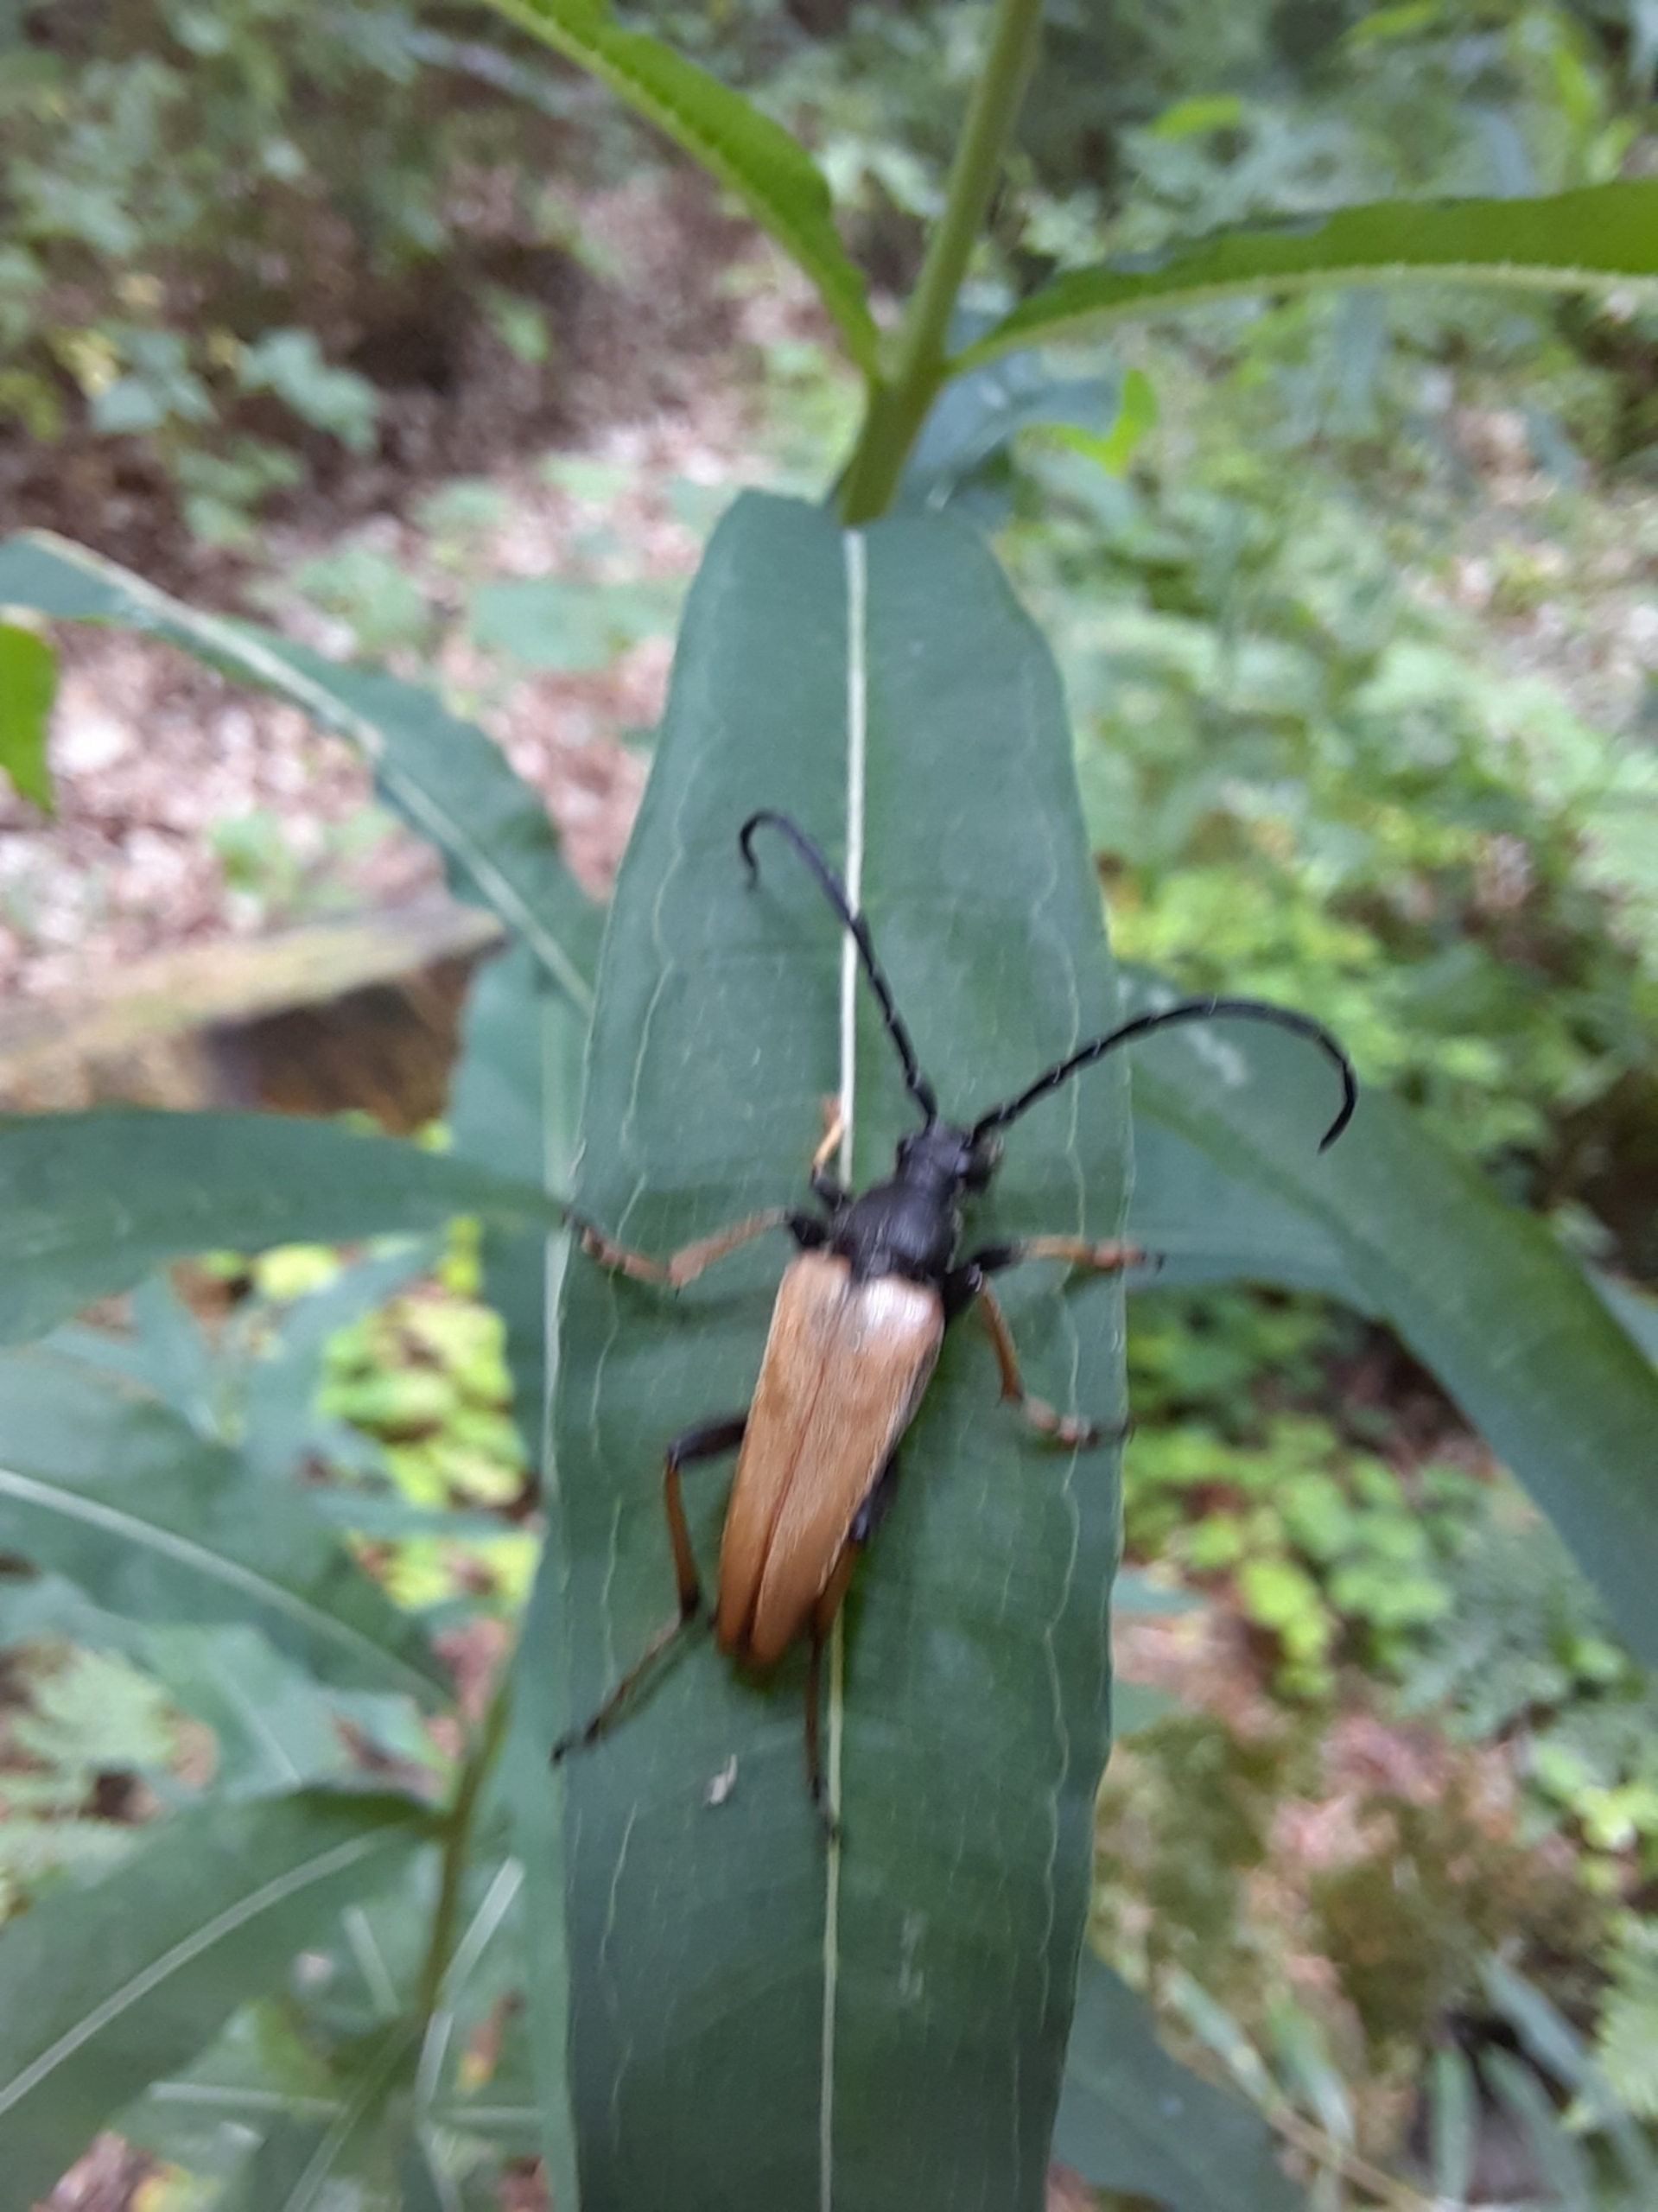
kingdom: Animalia
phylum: Arthropoda
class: Insecta
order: Coleoptera
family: Cerambycidae
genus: Stictoleptura
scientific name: Stictoleptura rubra
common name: Rød blomsterbuk
